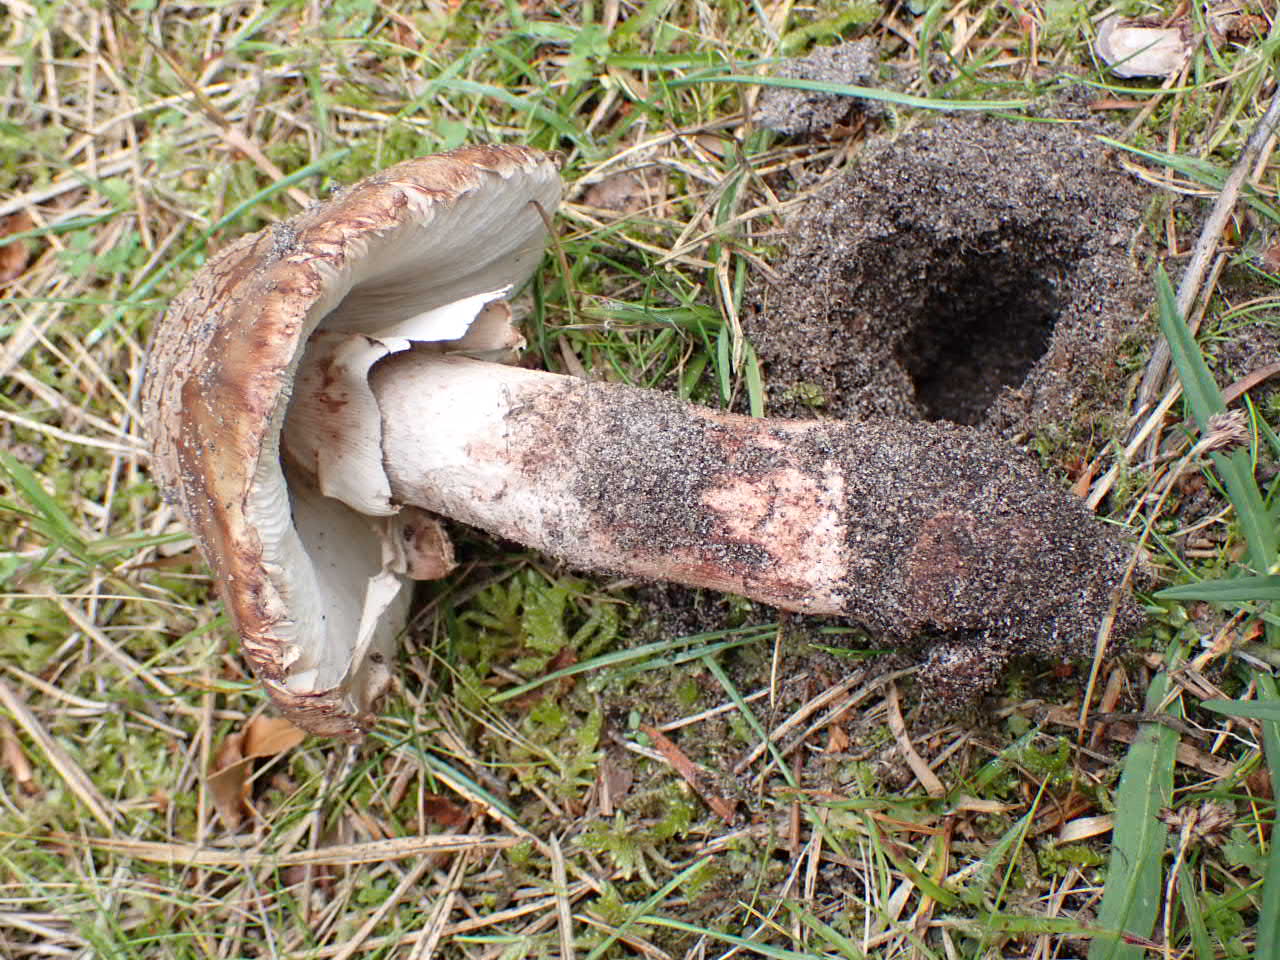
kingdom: Fungi
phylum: Basidiomycota
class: Agaricomycetes
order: Agaricales
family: Amanitaceae
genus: Amanita
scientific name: Amanita
